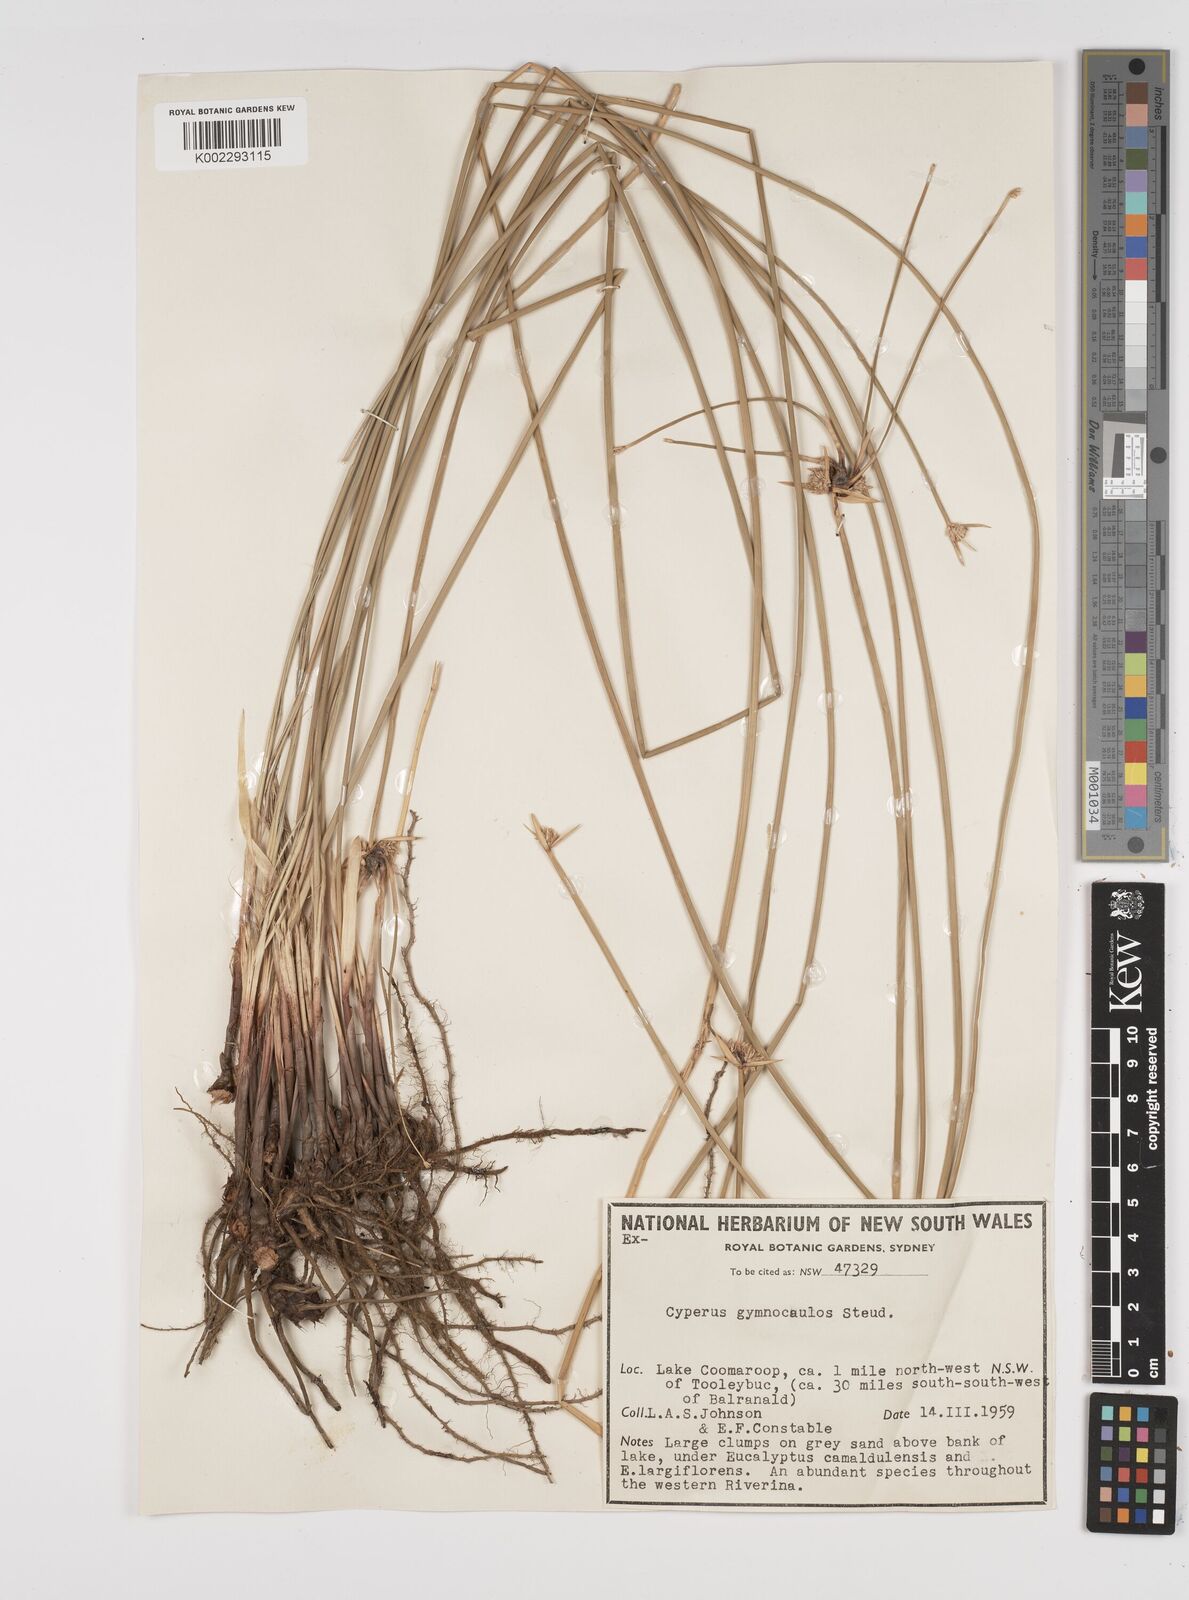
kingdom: Plantae
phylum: Tracheophyta
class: Liliopsida
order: Poales
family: Cyperaceae
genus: Cyperus
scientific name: Cyperus gymnocaulos
